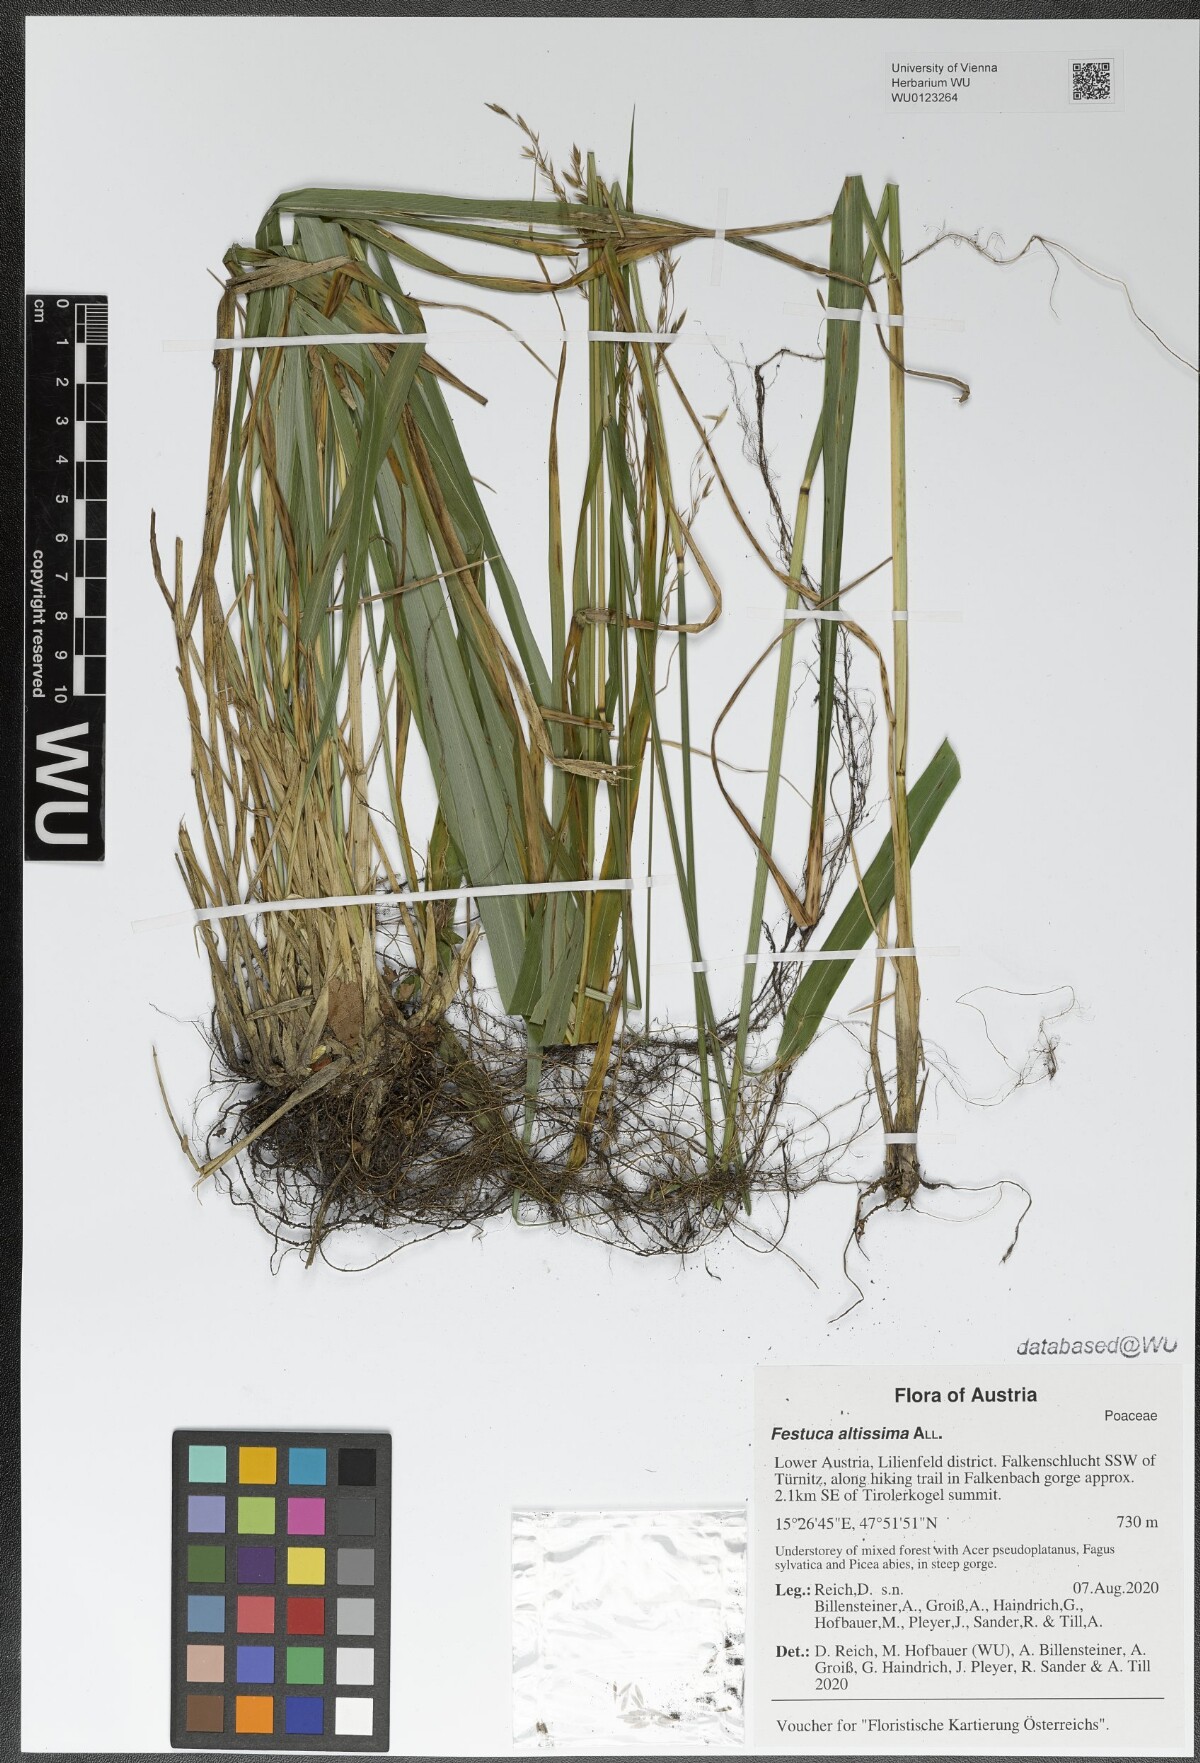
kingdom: Plantae
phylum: Tracheophyta
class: Liliopsida
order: Poales
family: Poaceae
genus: Festuca
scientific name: Festuca altissima
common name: Wood fescue
